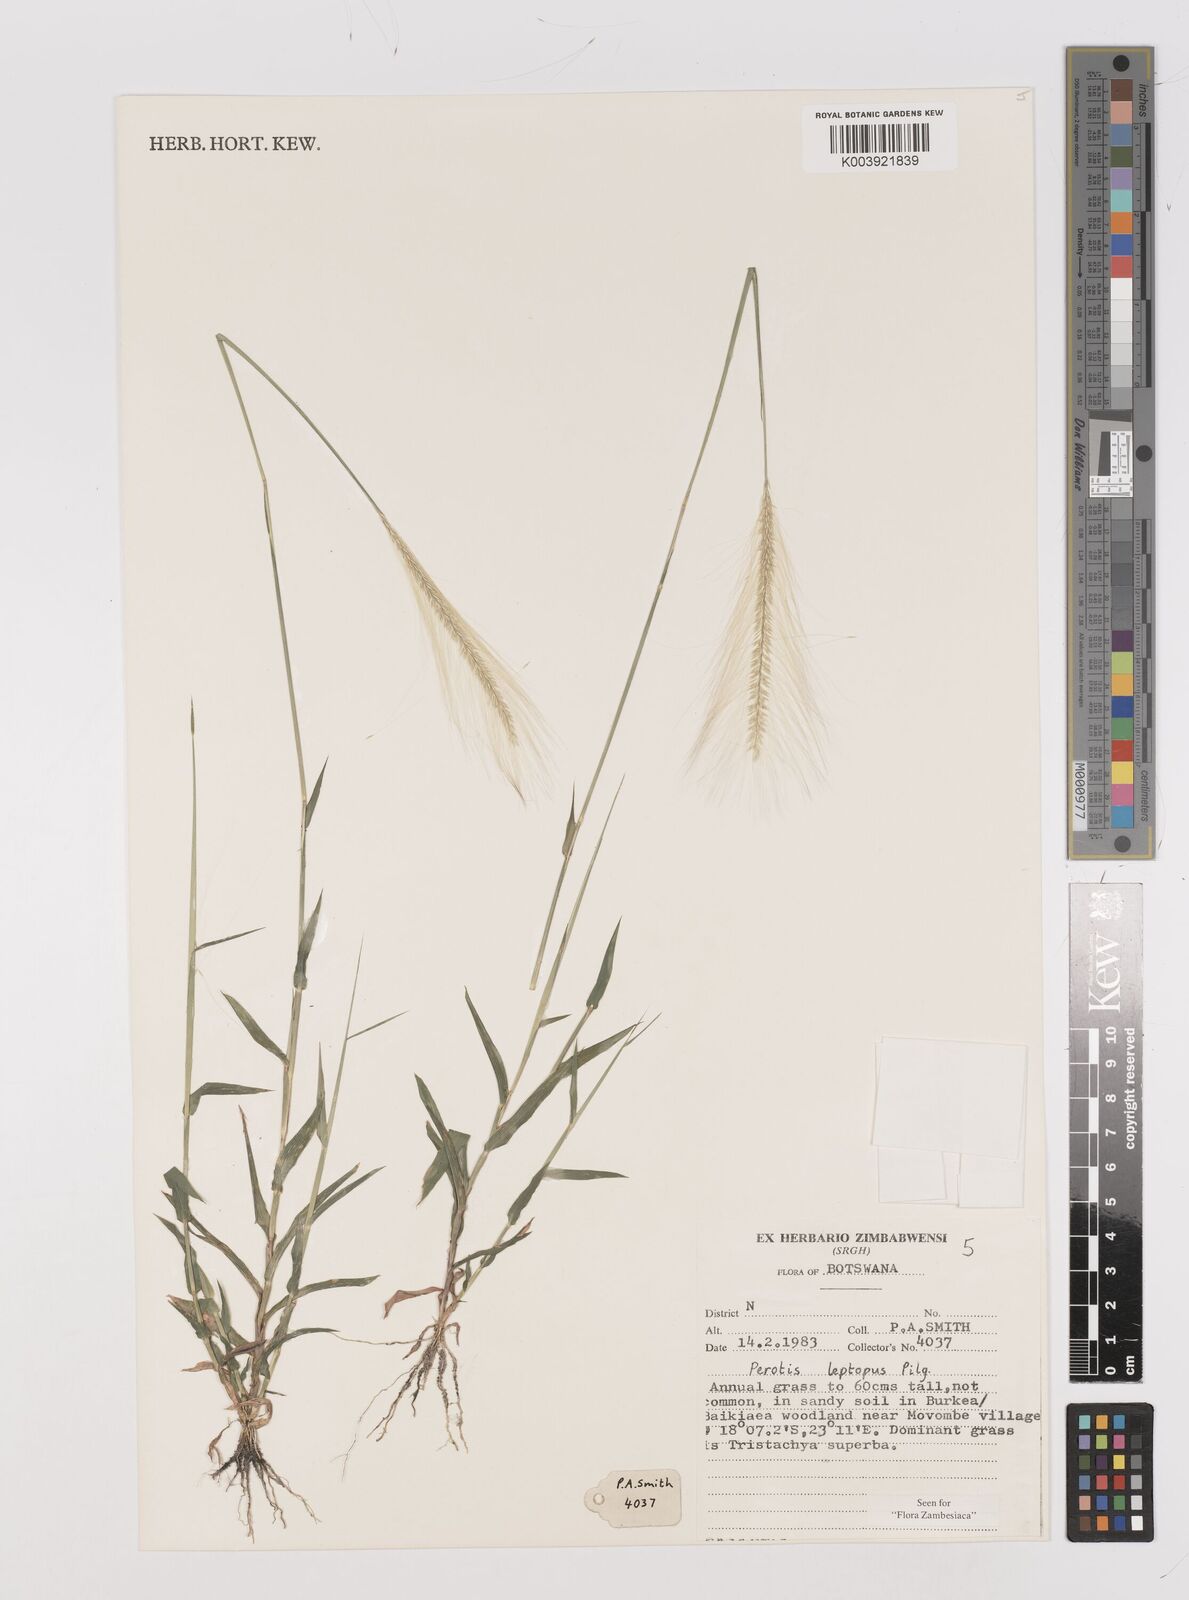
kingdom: Plantae
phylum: Tracheophyta
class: Liliopsida
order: Poales
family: Poaceae
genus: Perotis
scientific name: Perotis leptopus
